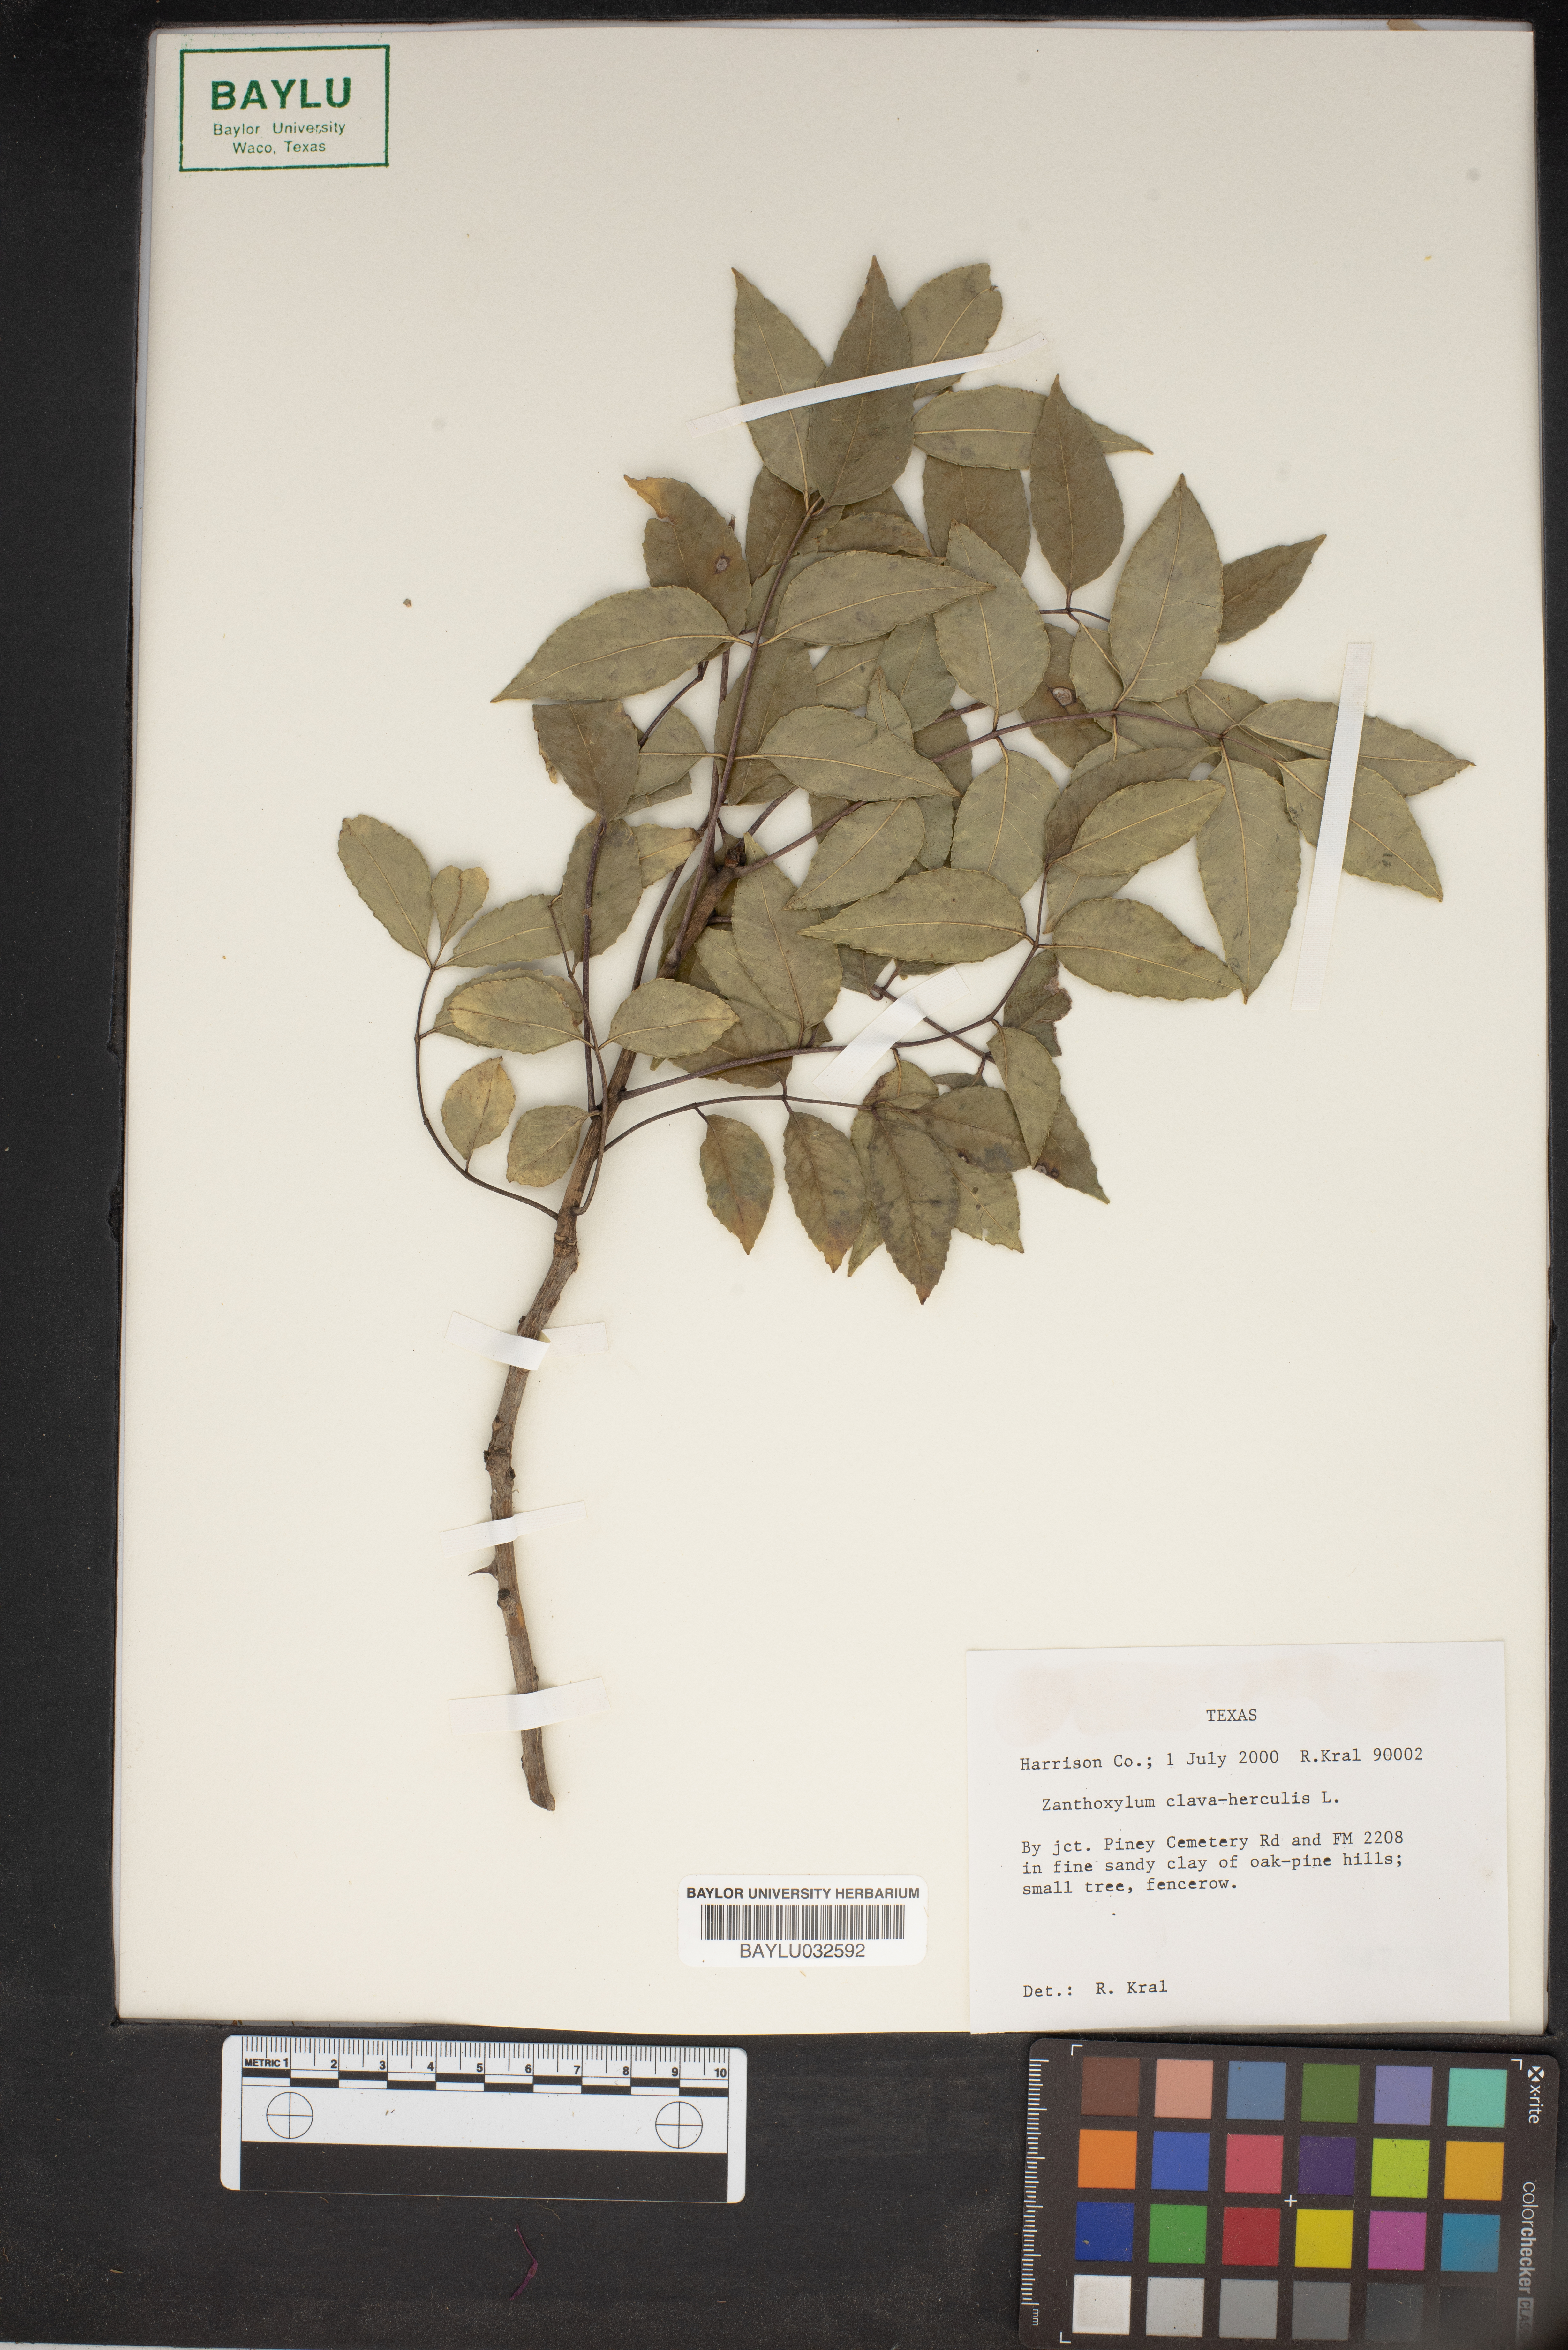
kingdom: Plantae
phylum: Tracheophyta
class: Magnoliopsida
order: Sapindales
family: Rutaceae
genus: Zanthoxylum
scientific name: Zanthoxylum avicennae
